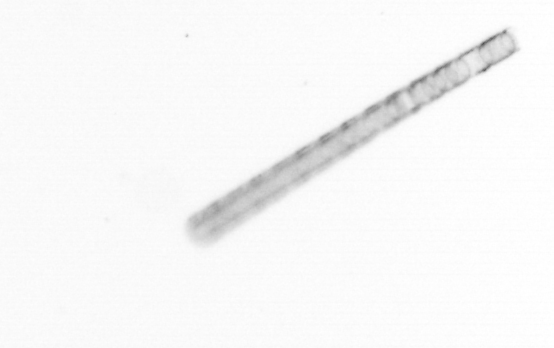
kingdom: Chromista
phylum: Ochrophyta
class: Bacillariophyceae
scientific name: Bacillariophyceae
